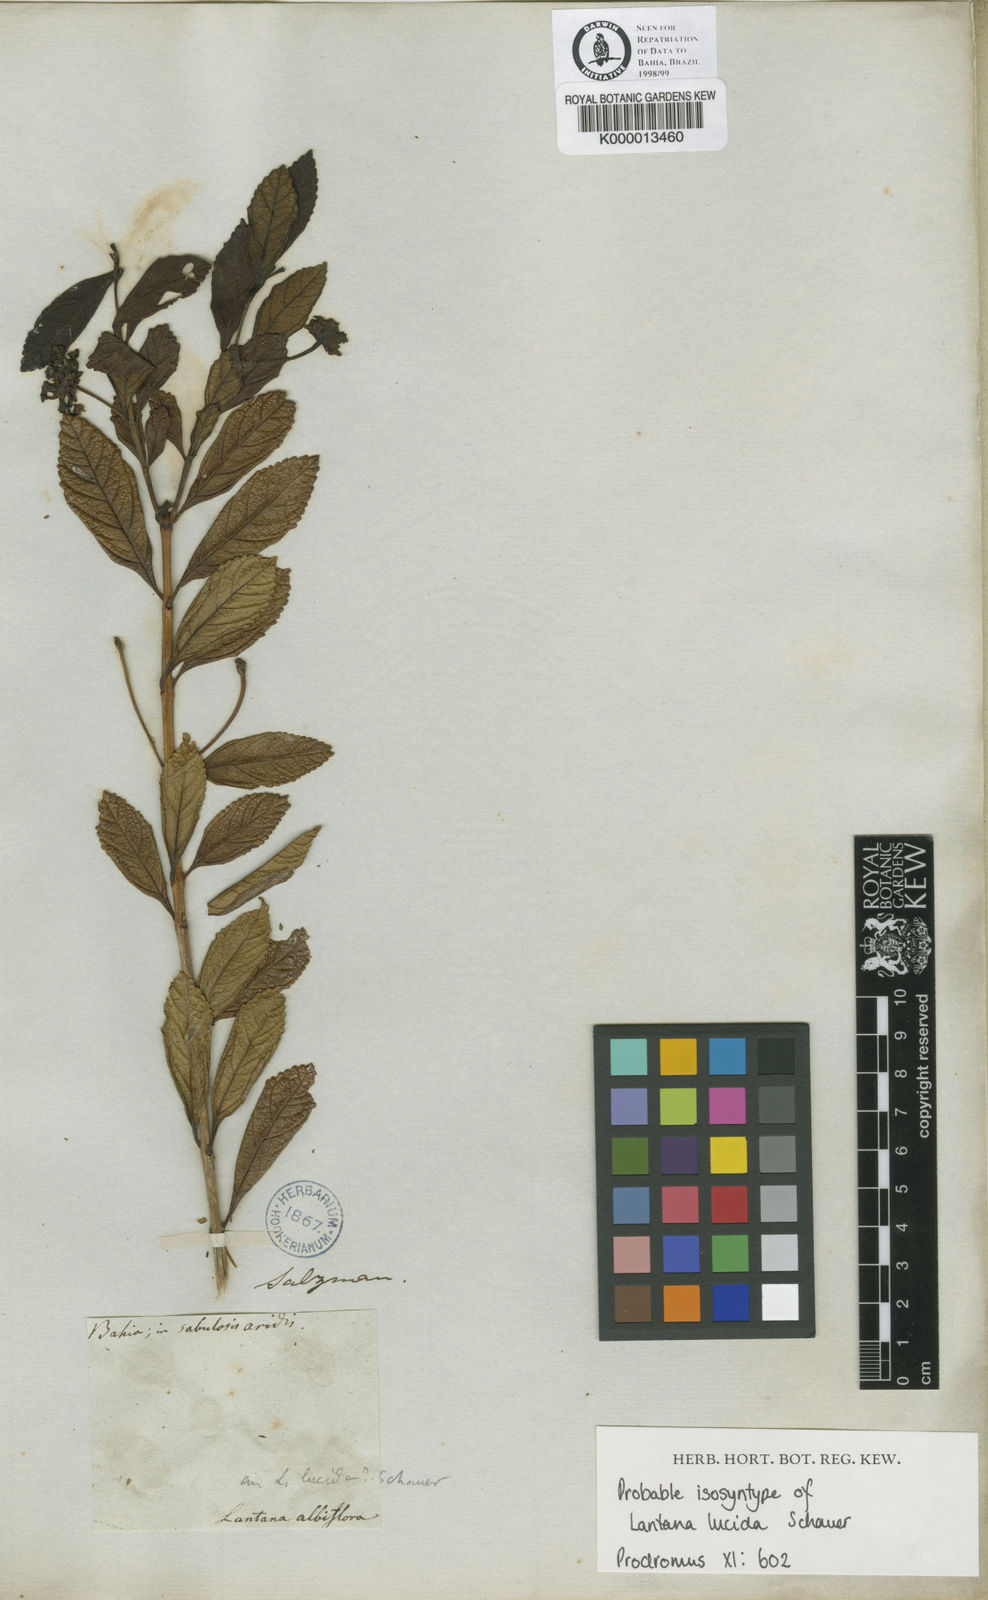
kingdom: Plantae
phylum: Tracheophyta
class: Magnoliopsida
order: Lamiales
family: Verbenaceae
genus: Lantana
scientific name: Lantana lucida
